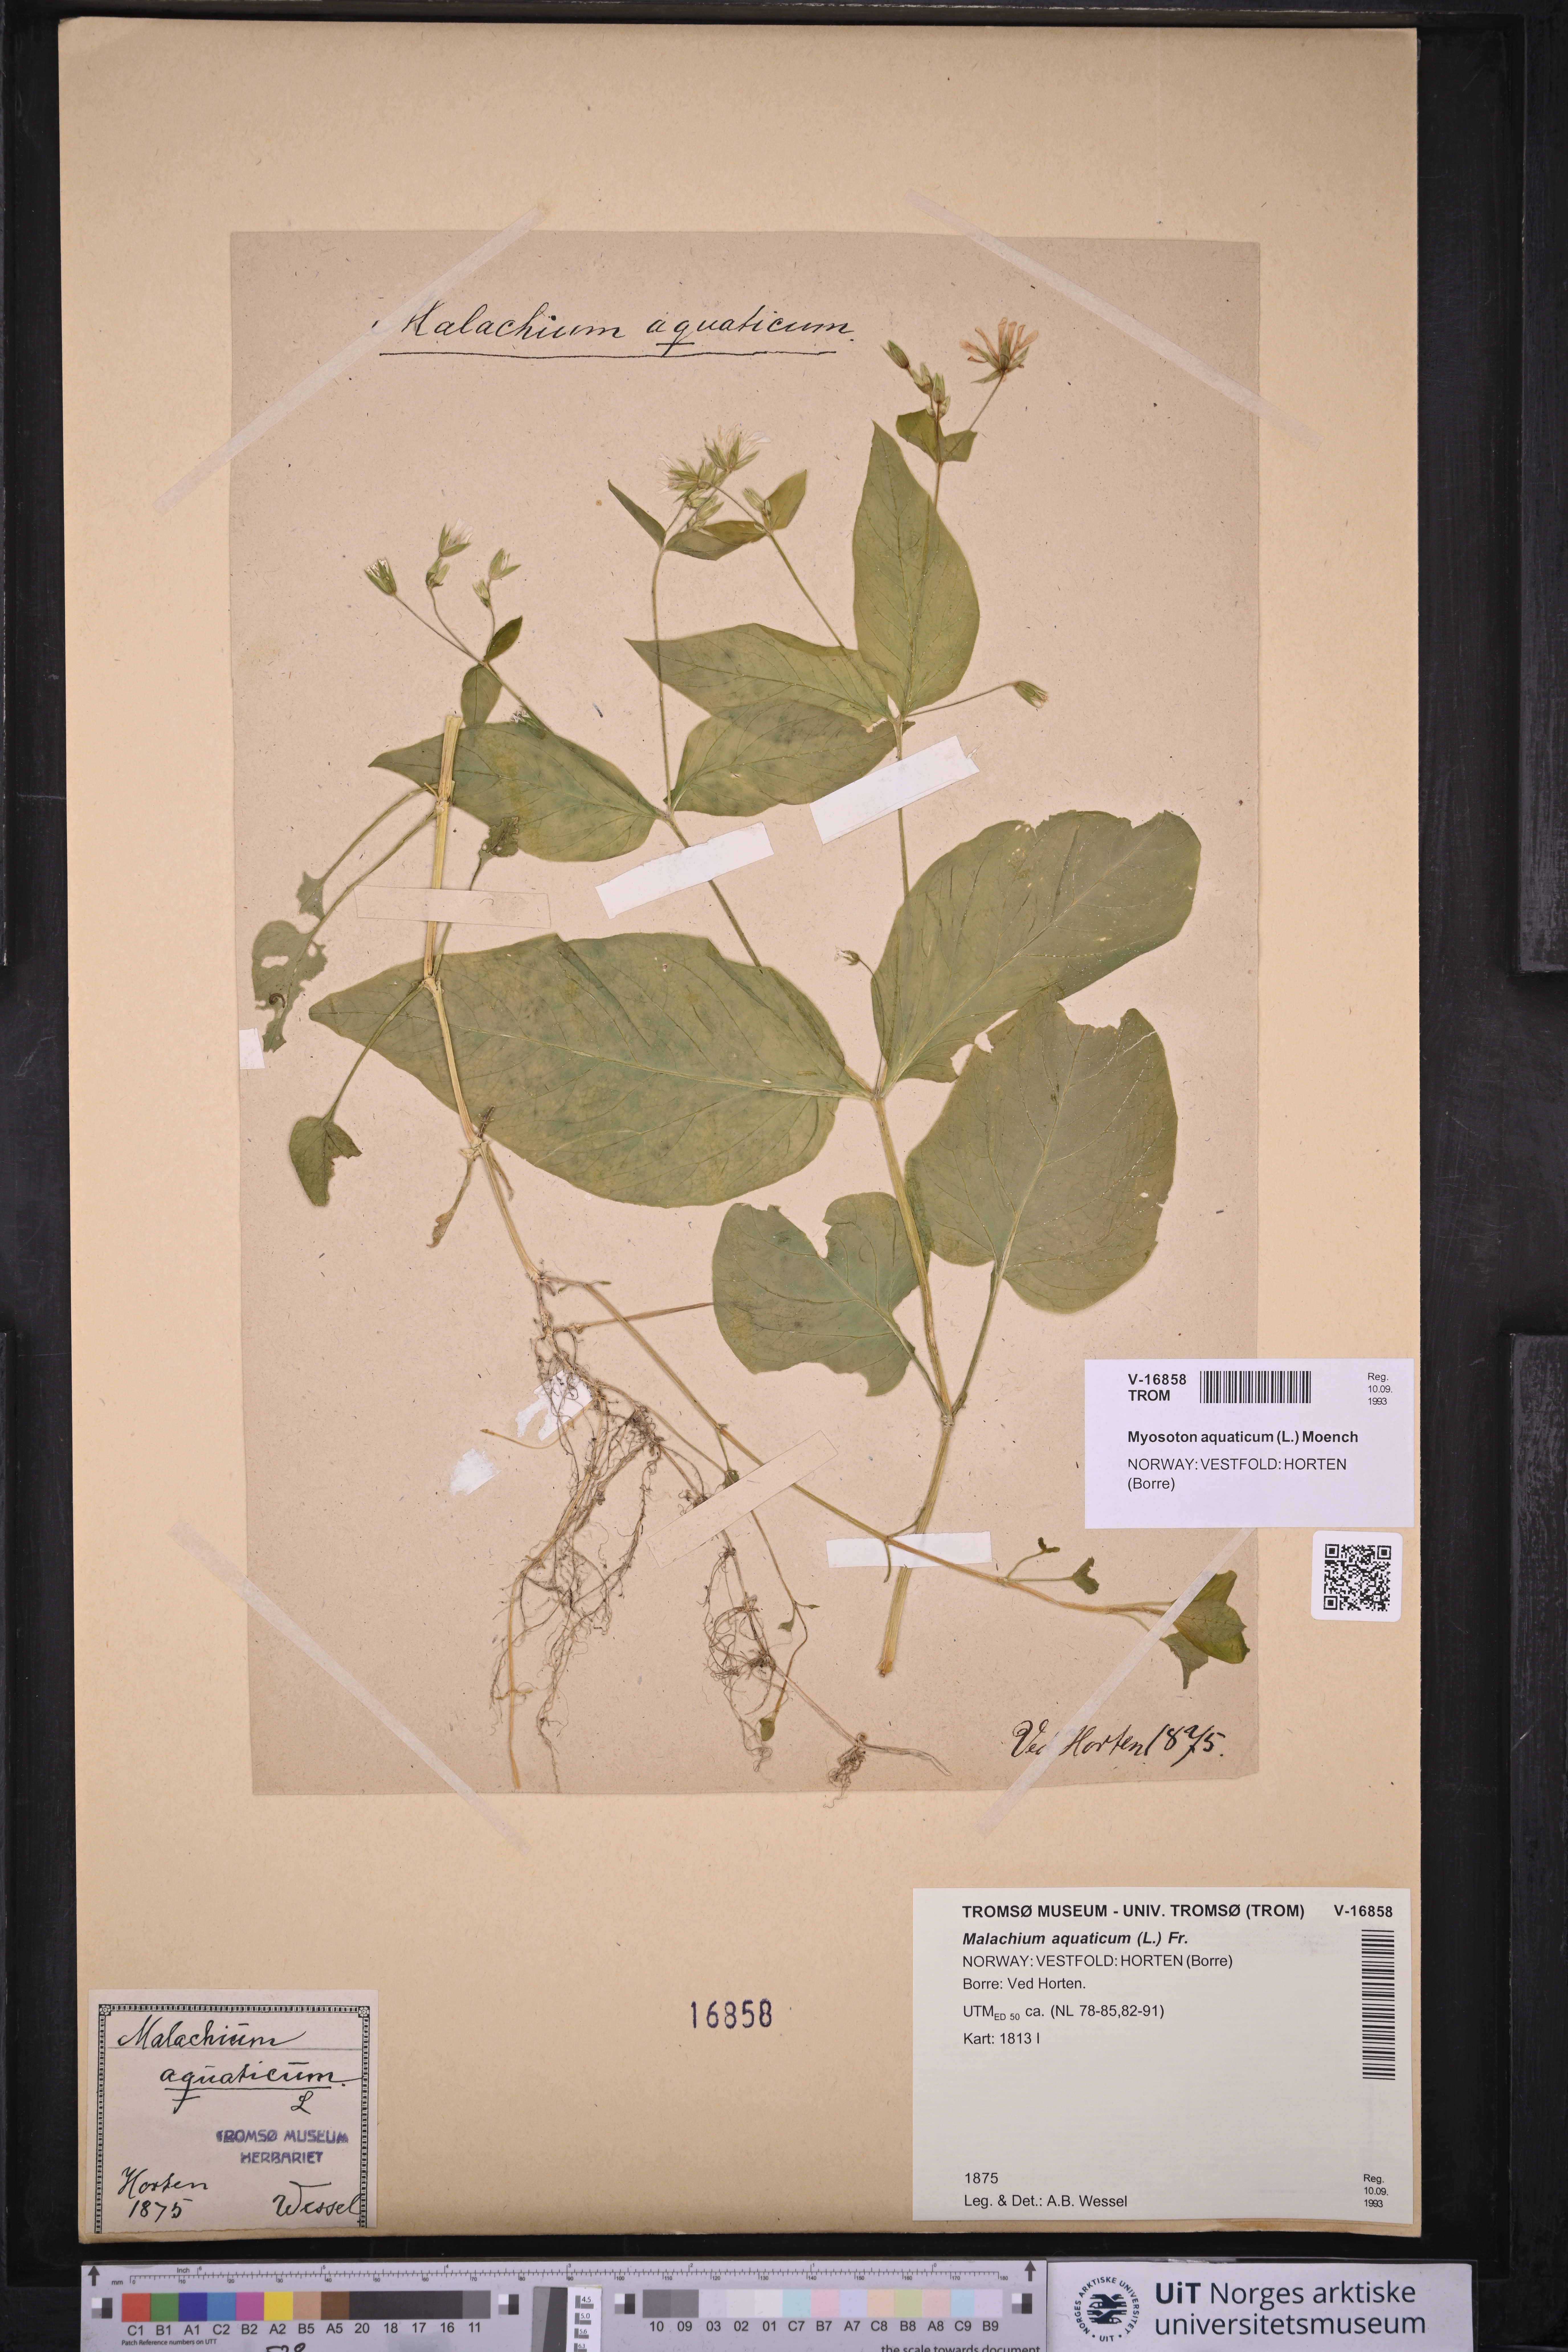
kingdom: Plantae
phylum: Tracheophyta
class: Magnoliopsida
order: Caryophyllales
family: Caryophyllaceae
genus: Stellaria
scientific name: Stellaria aquatica
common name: Water chickweed
